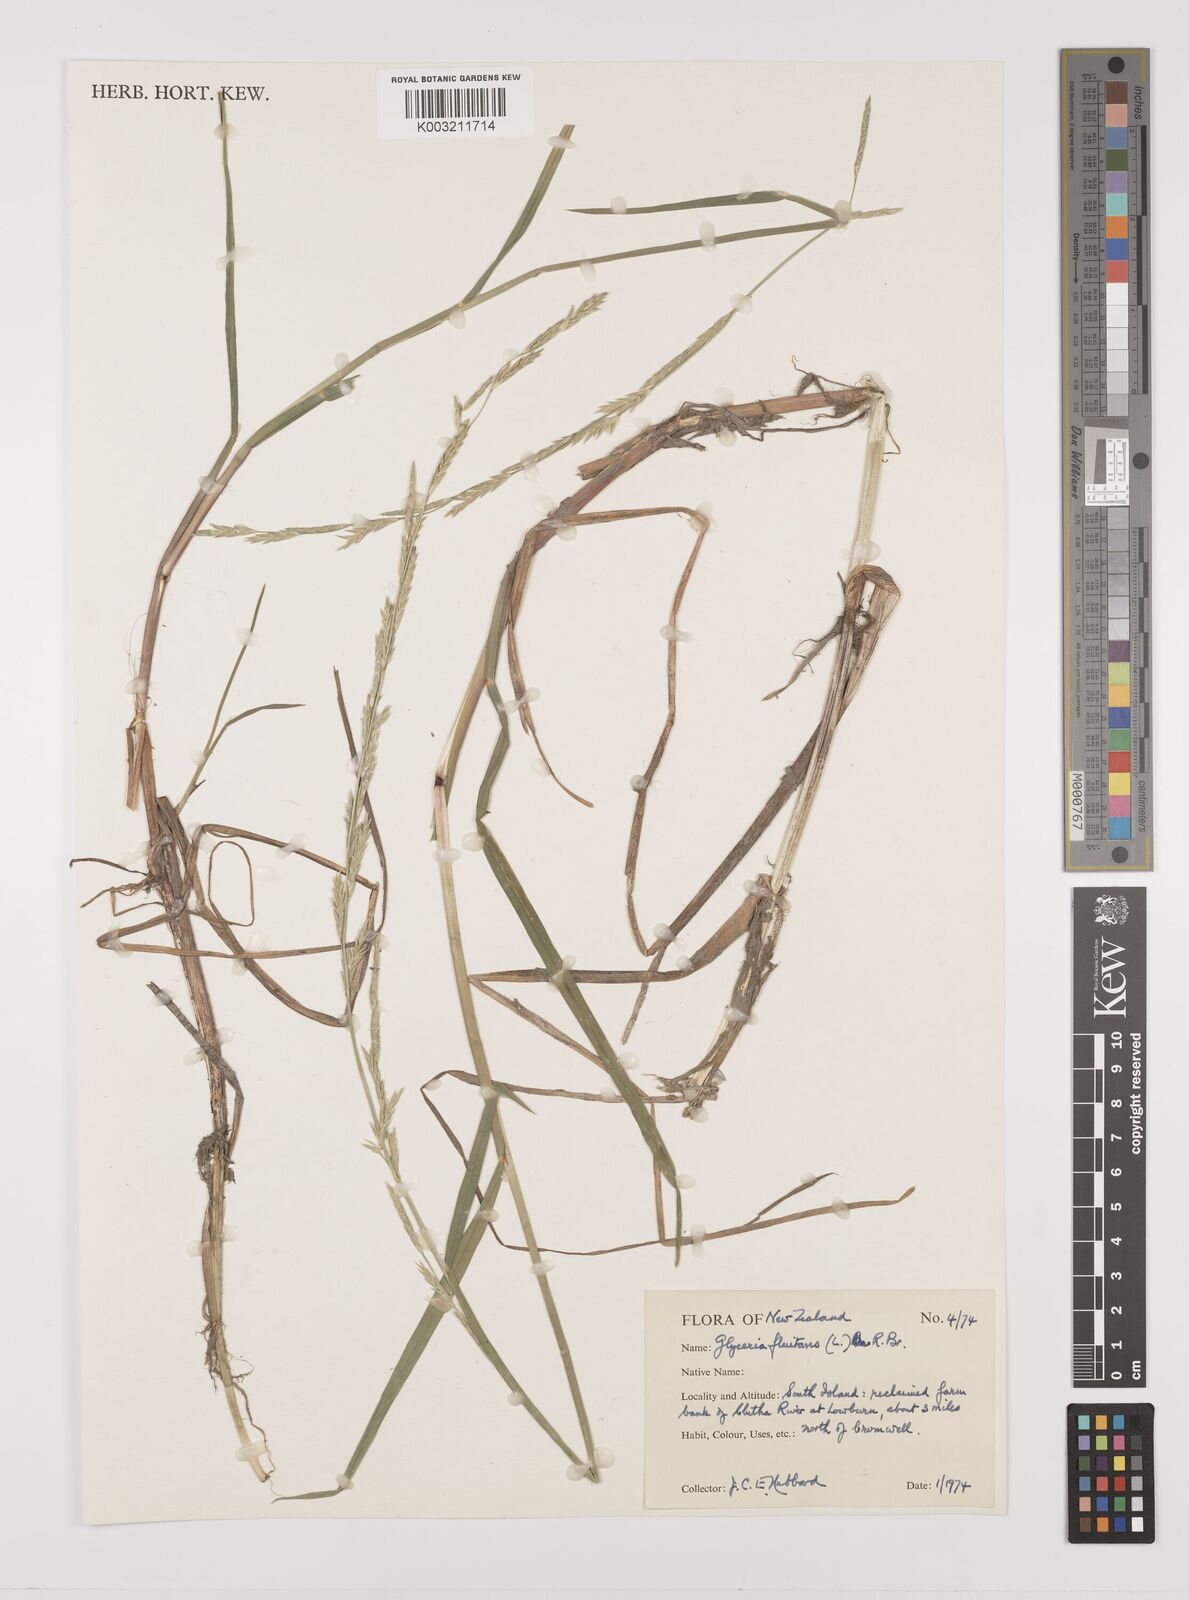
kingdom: Plantae
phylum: Tracheophyta
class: Liliopsida
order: Poales
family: Poaceae
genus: Glyceria
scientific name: Glyceria fluitans
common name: Floating sweet-grass
